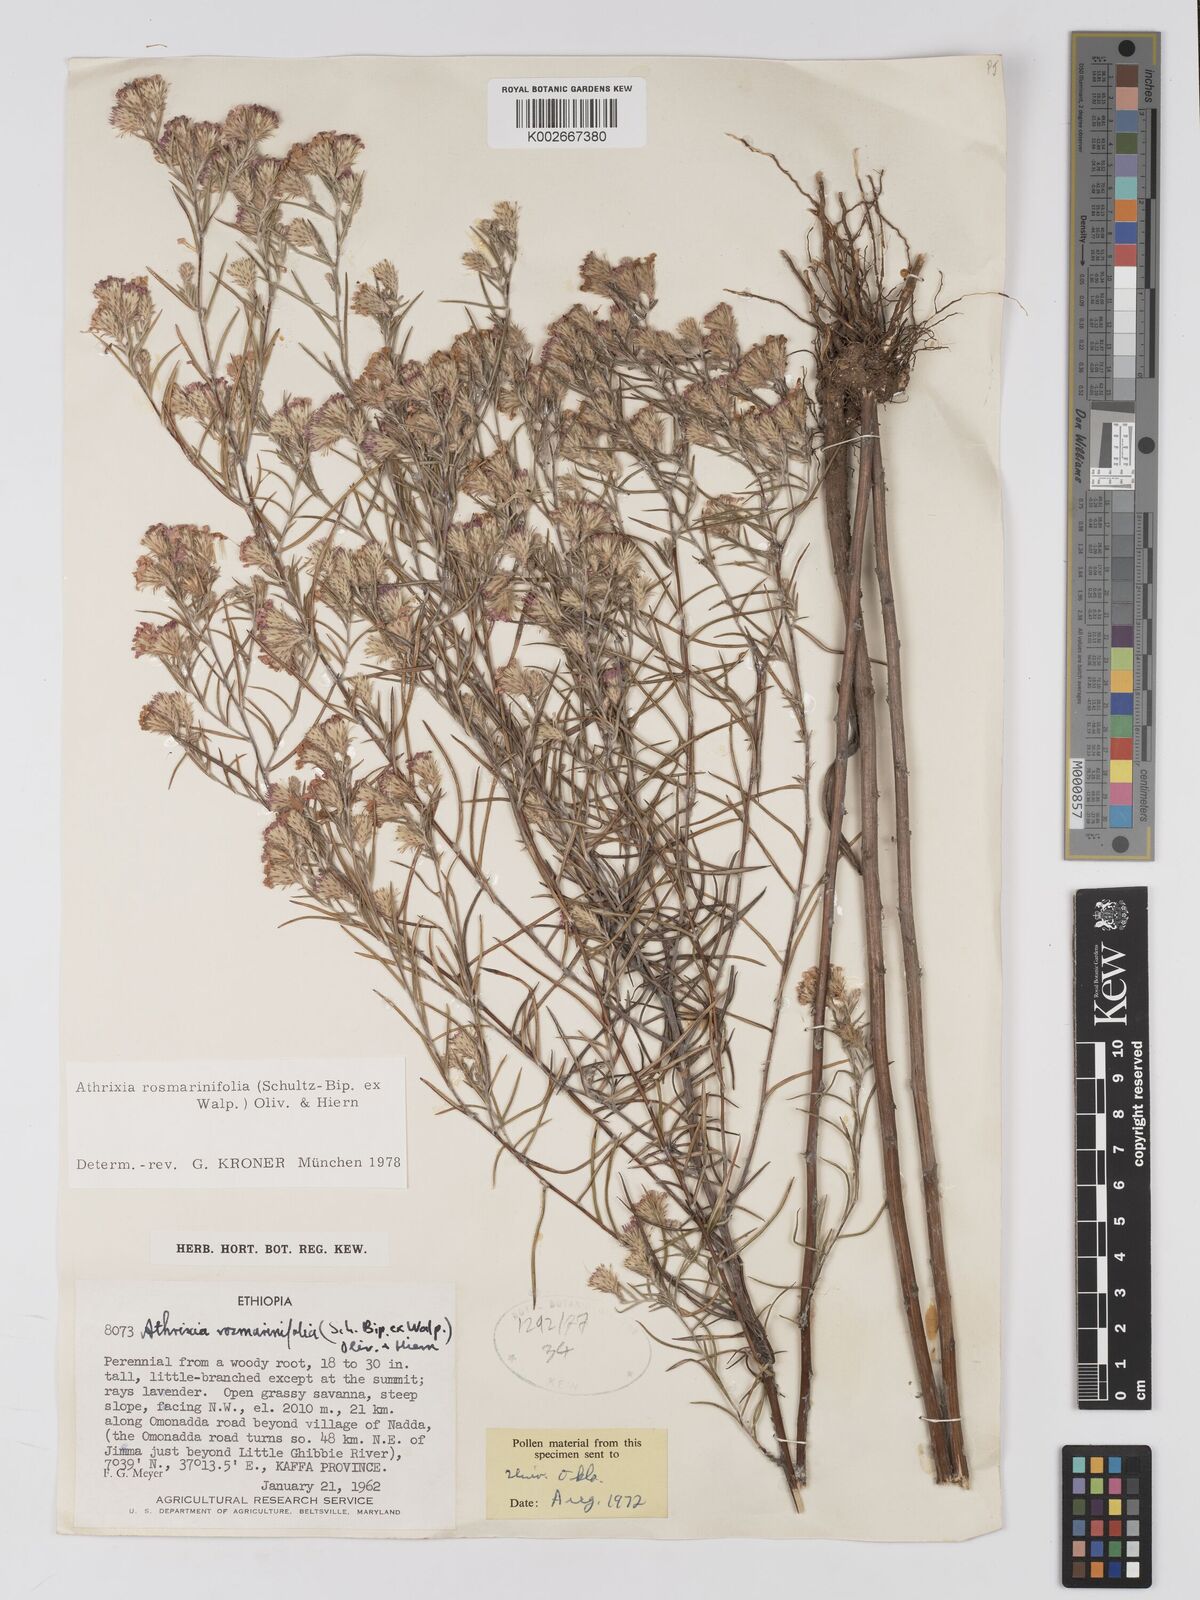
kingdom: Plantae
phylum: Tracheophyta
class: Magnoliopsida
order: Asterales
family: Asteraceae
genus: Athrixia
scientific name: Athrixia rosmarinifolia
